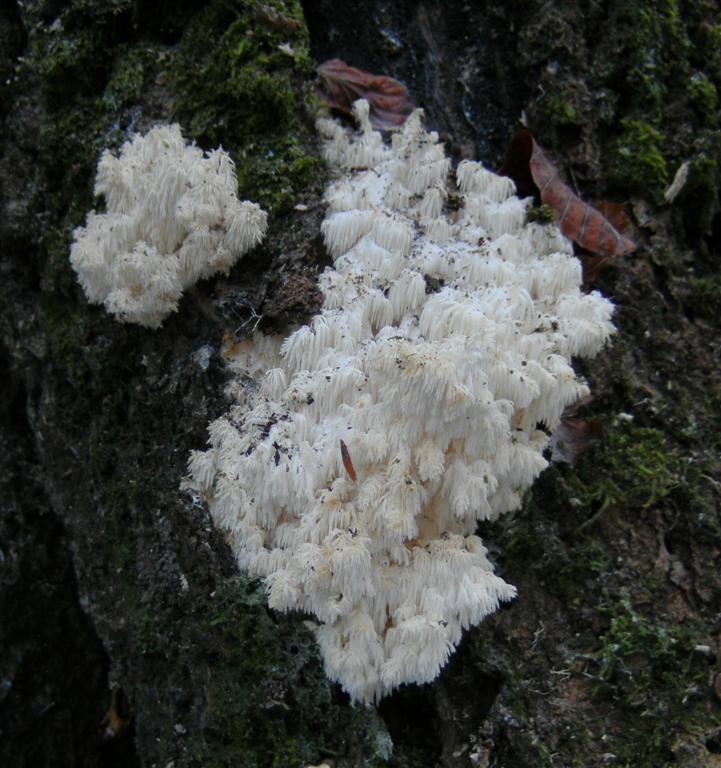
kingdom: Fungi
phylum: Basidiomycota
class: Agaricomycetes
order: Russulales
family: Hericiaceae
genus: Hericium
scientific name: Hericium coralloides
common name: koralpigsvamp
